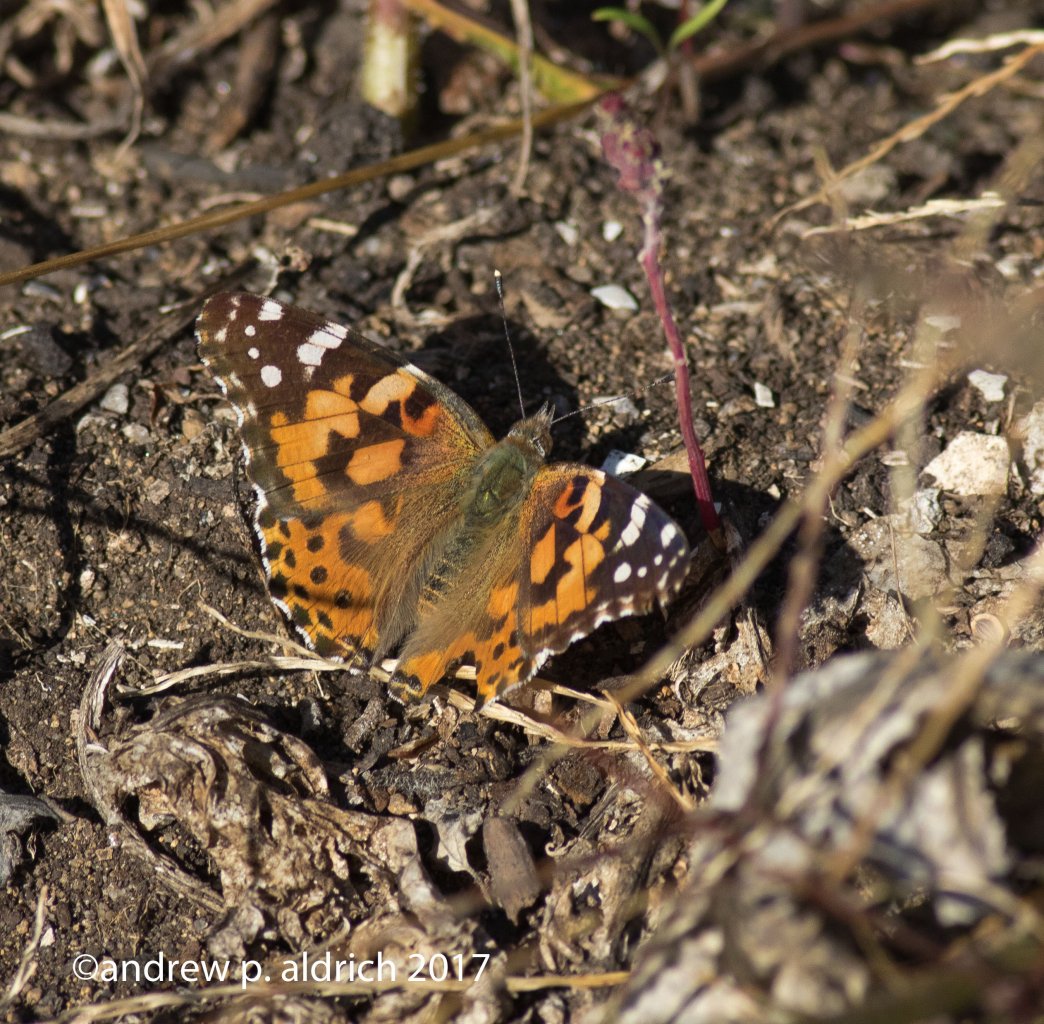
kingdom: Animalia
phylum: Arthropoda
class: Insecta
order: Lepidoptera
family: Nymphalidae
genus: Vanessa
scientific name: Vanessa cardui
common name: Painted Lady
